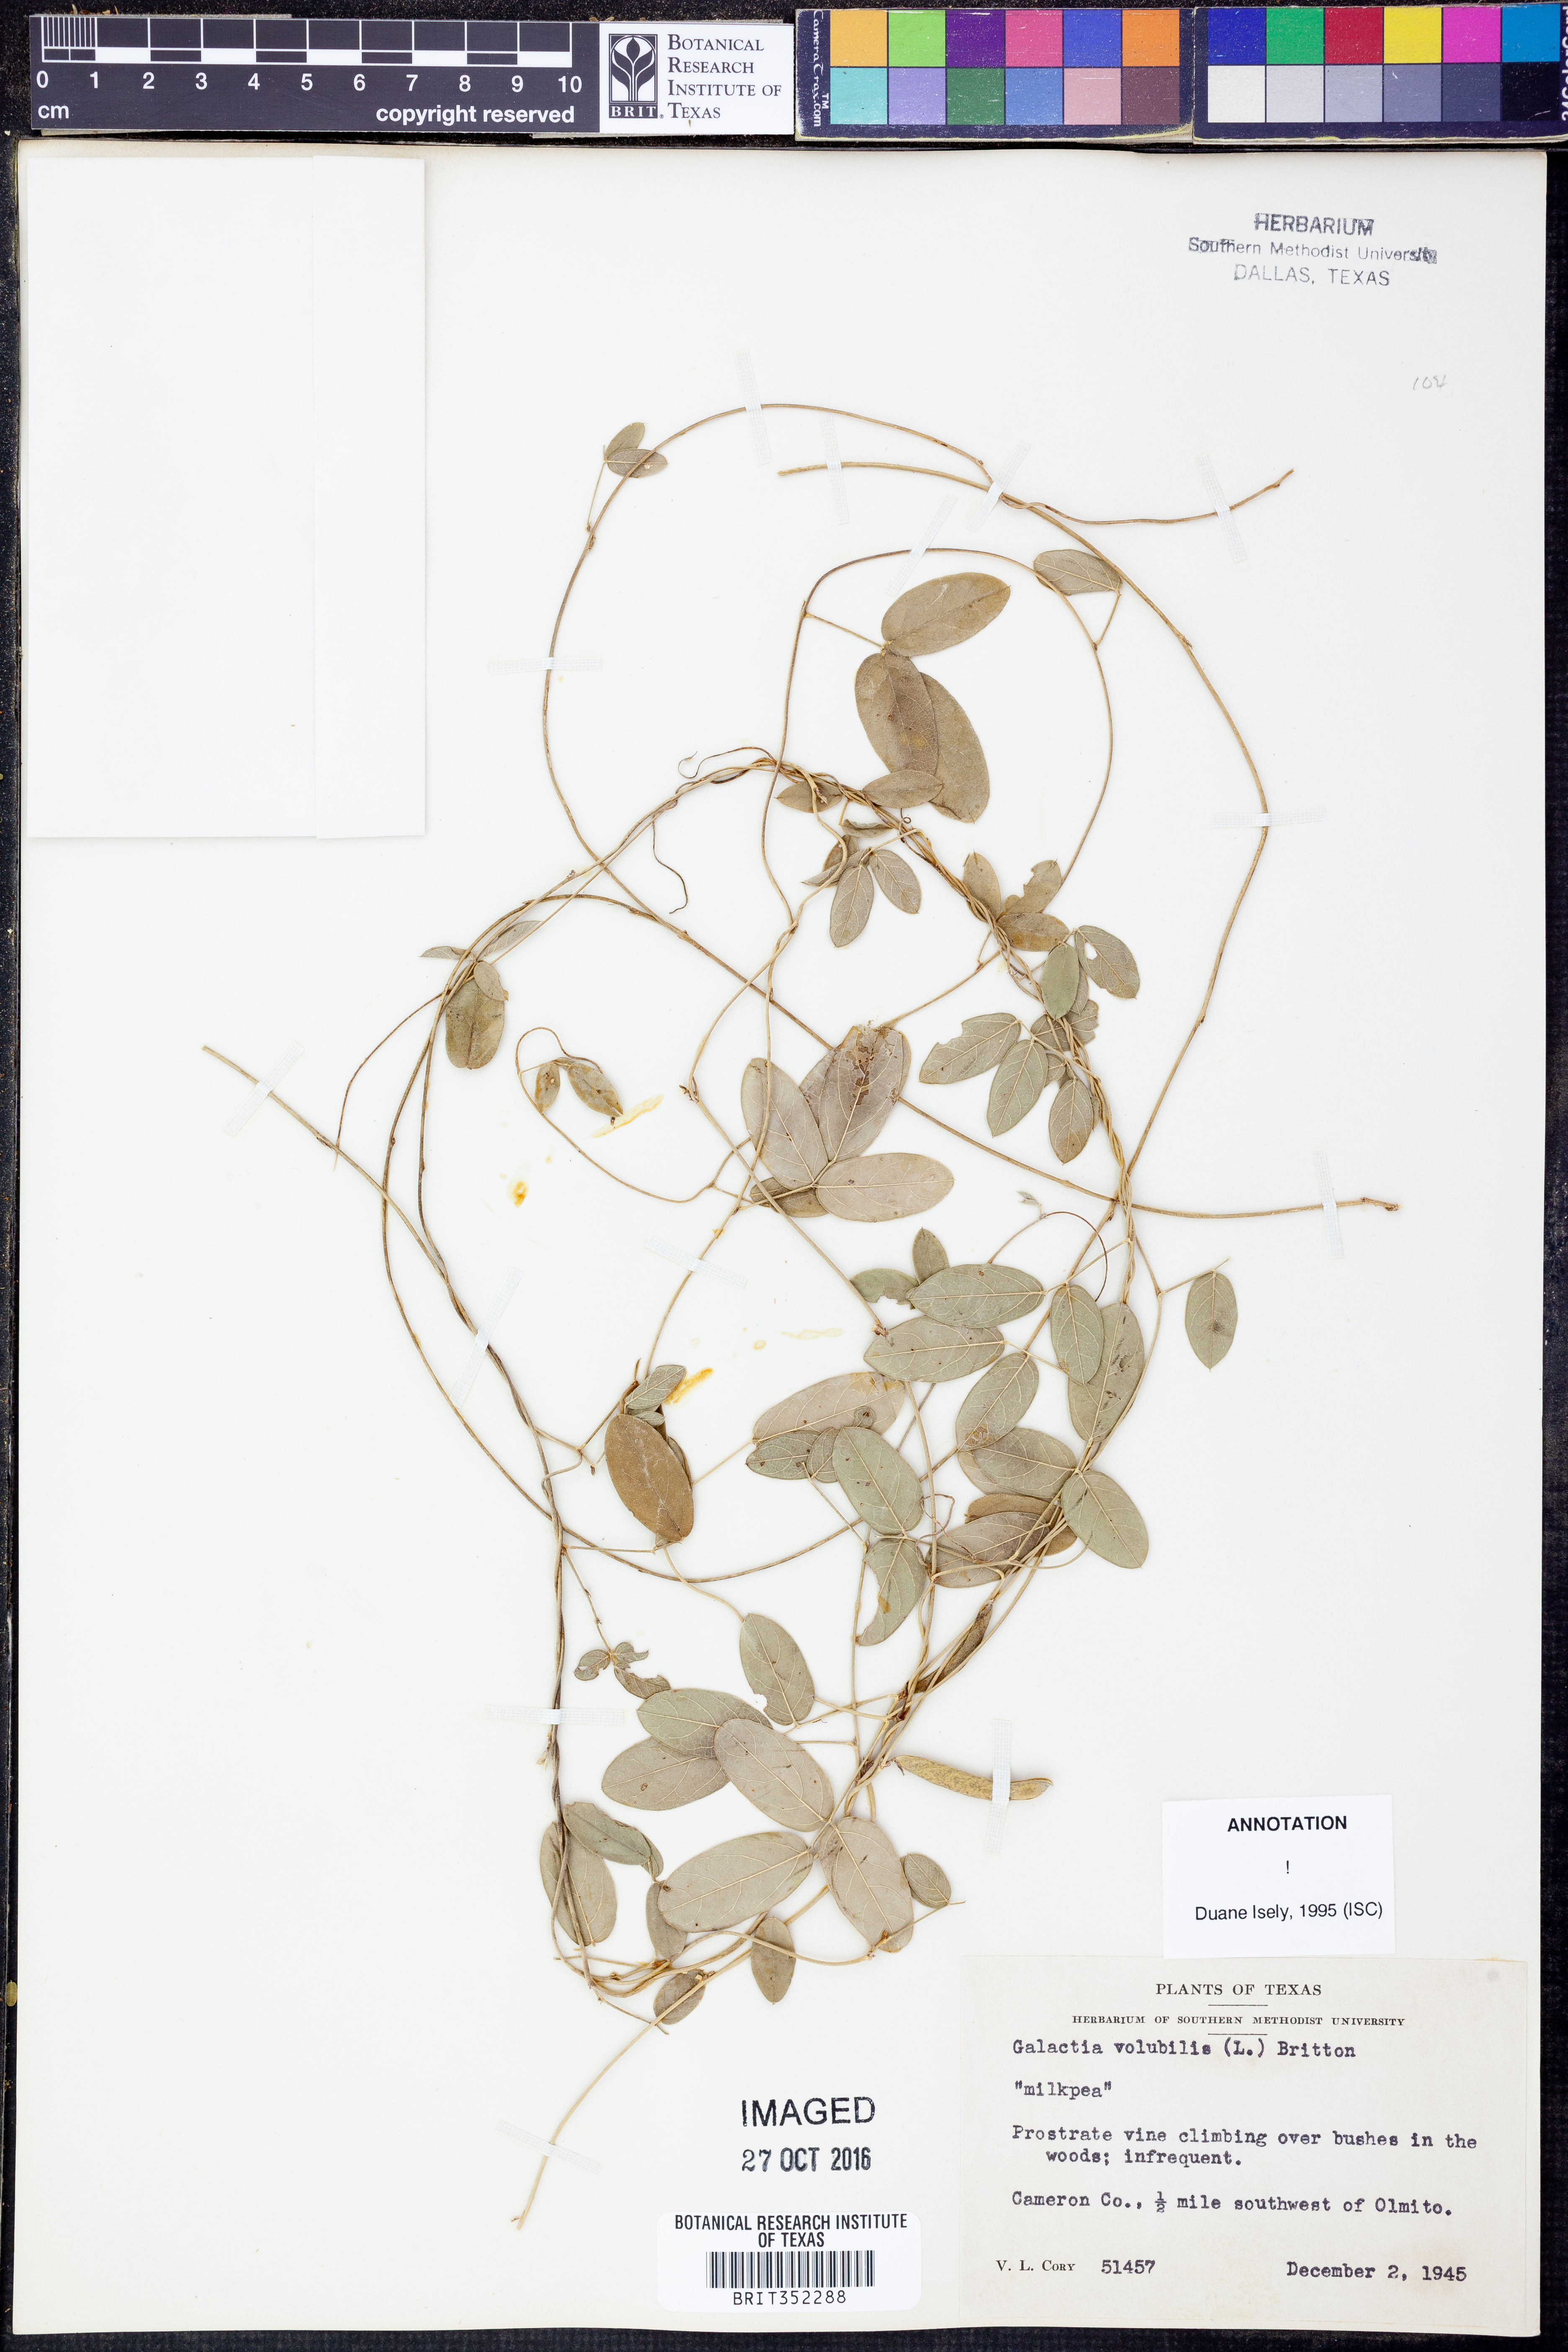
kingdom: Plantae
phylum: Tracheophyta
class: Magnoliopsida
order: Fabales
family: Fabaceae
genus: Galactia
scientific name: Galactia volubilis
